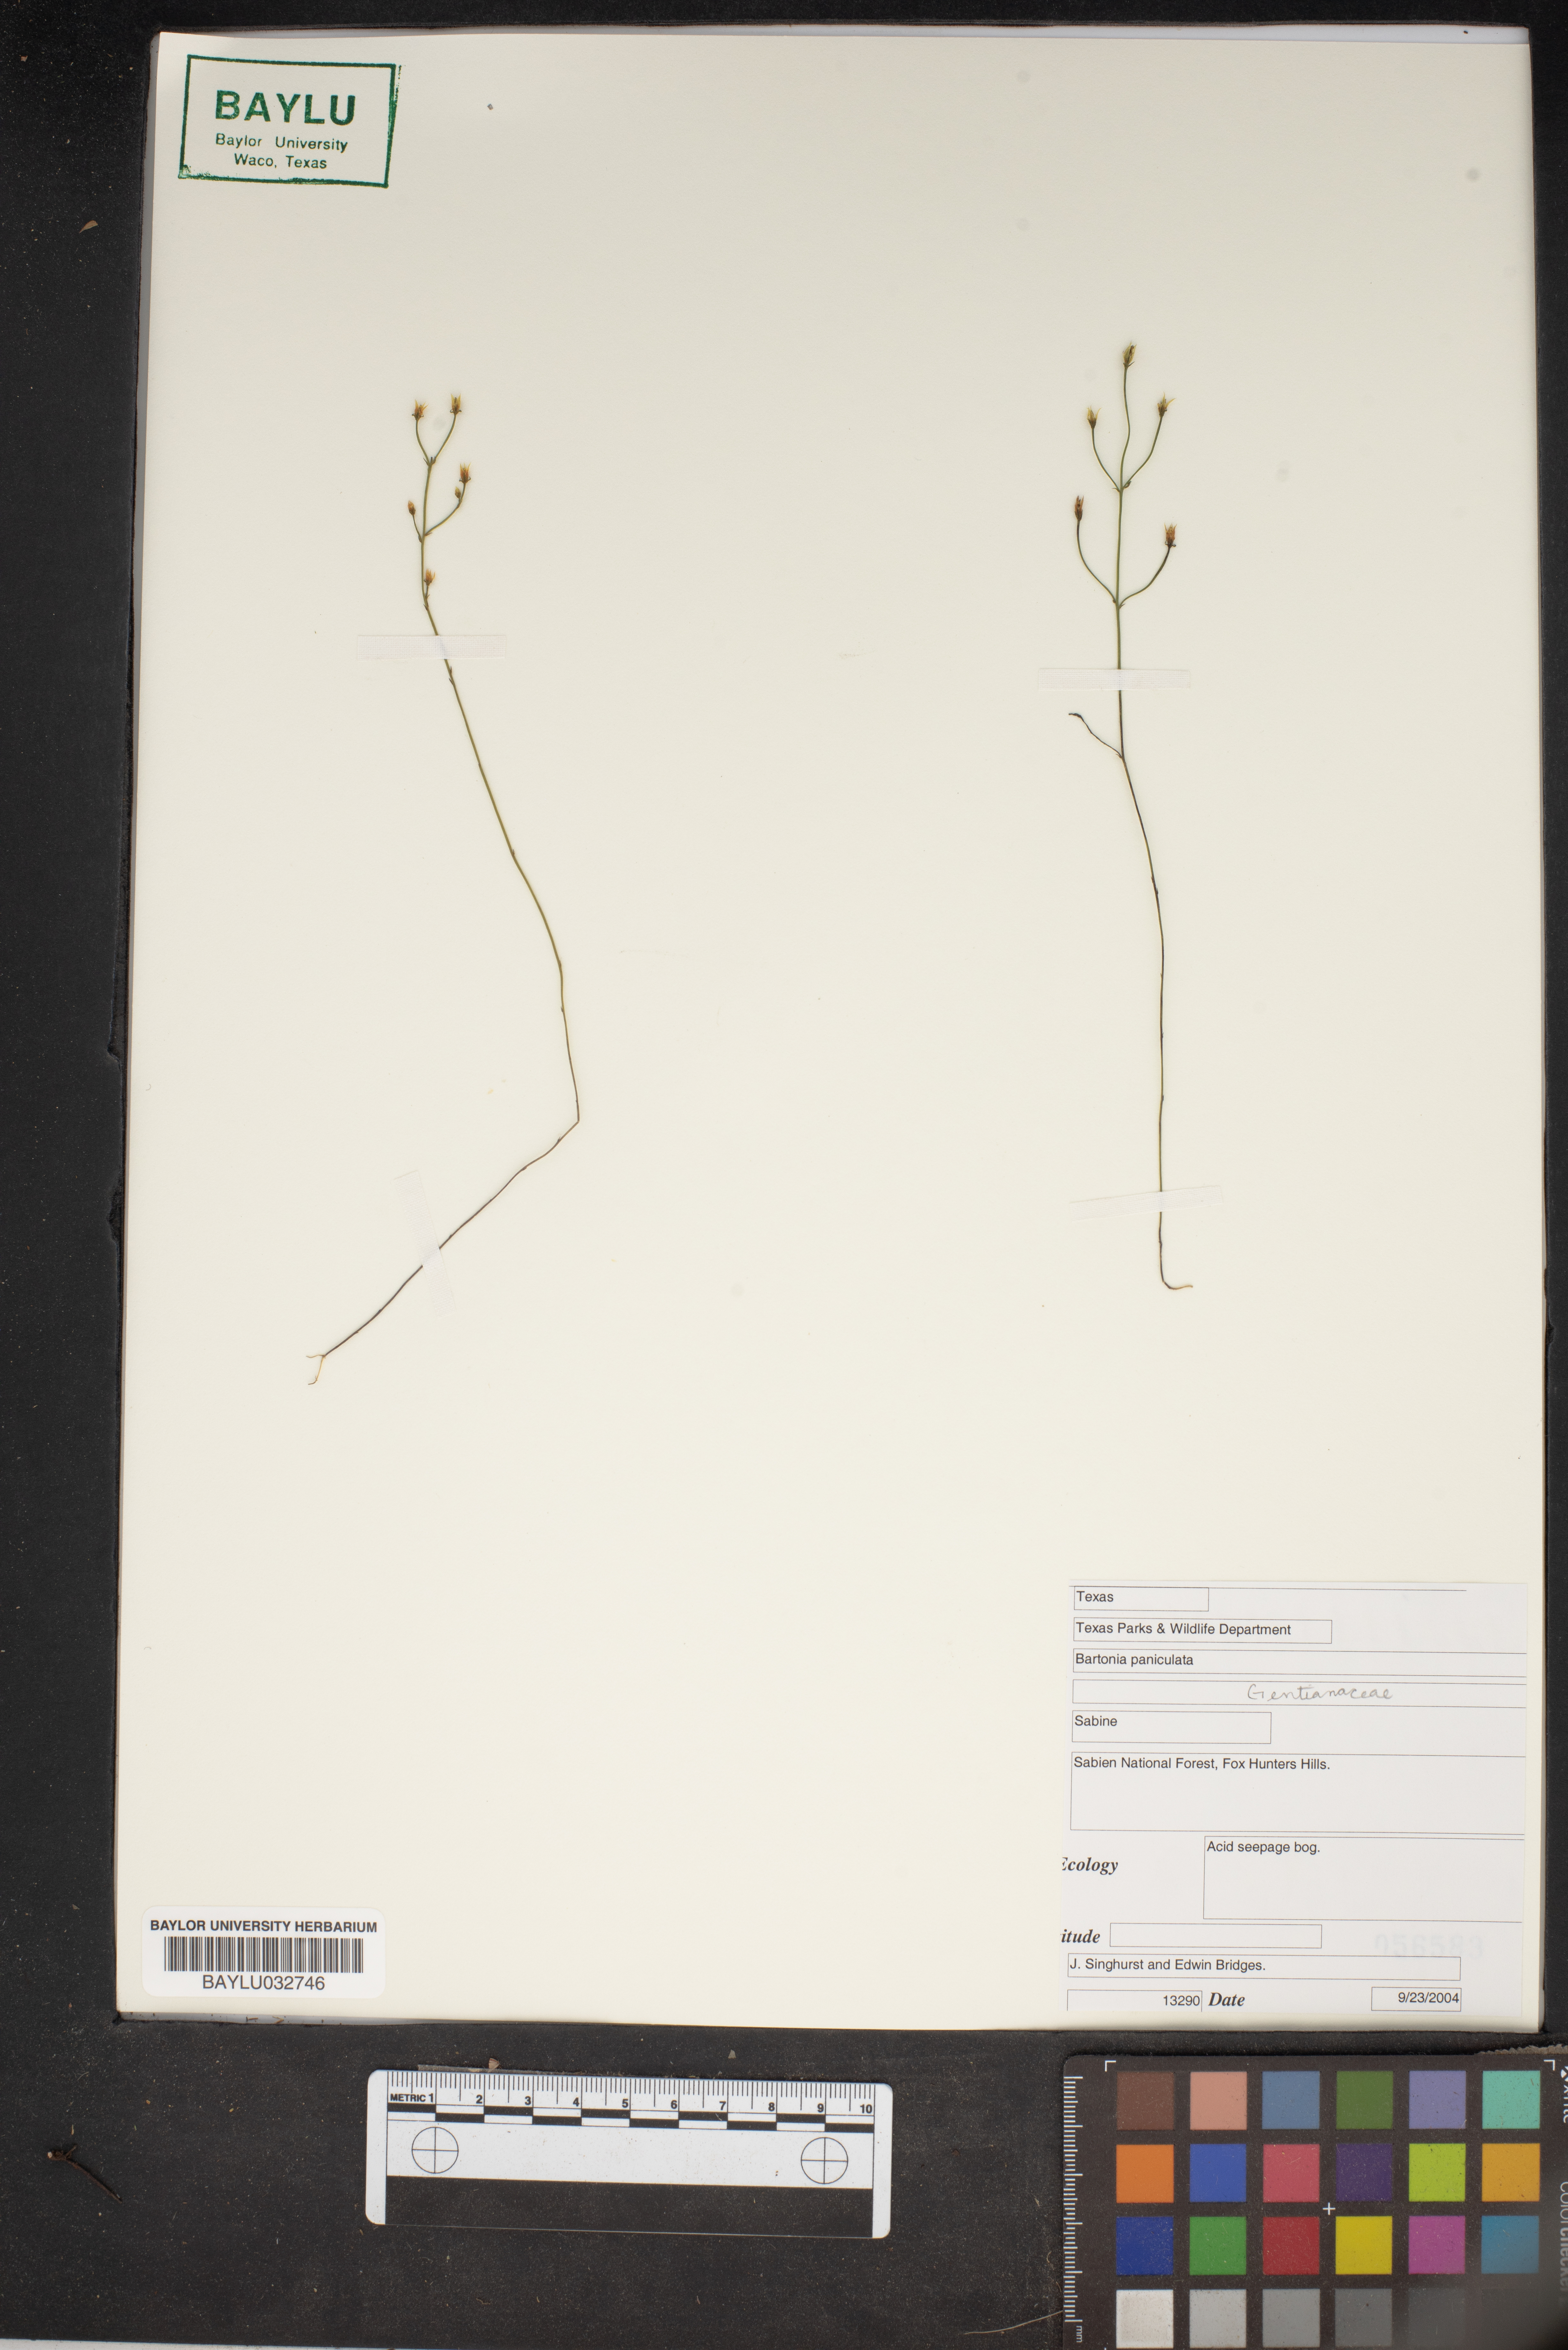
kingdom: Plantae
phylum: Tracheophyta
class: Magnoliopsida
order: Gentianales
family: Gentianaceae
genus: Bartonia
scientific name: Bartonia paniculata
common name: Branched bartonia
